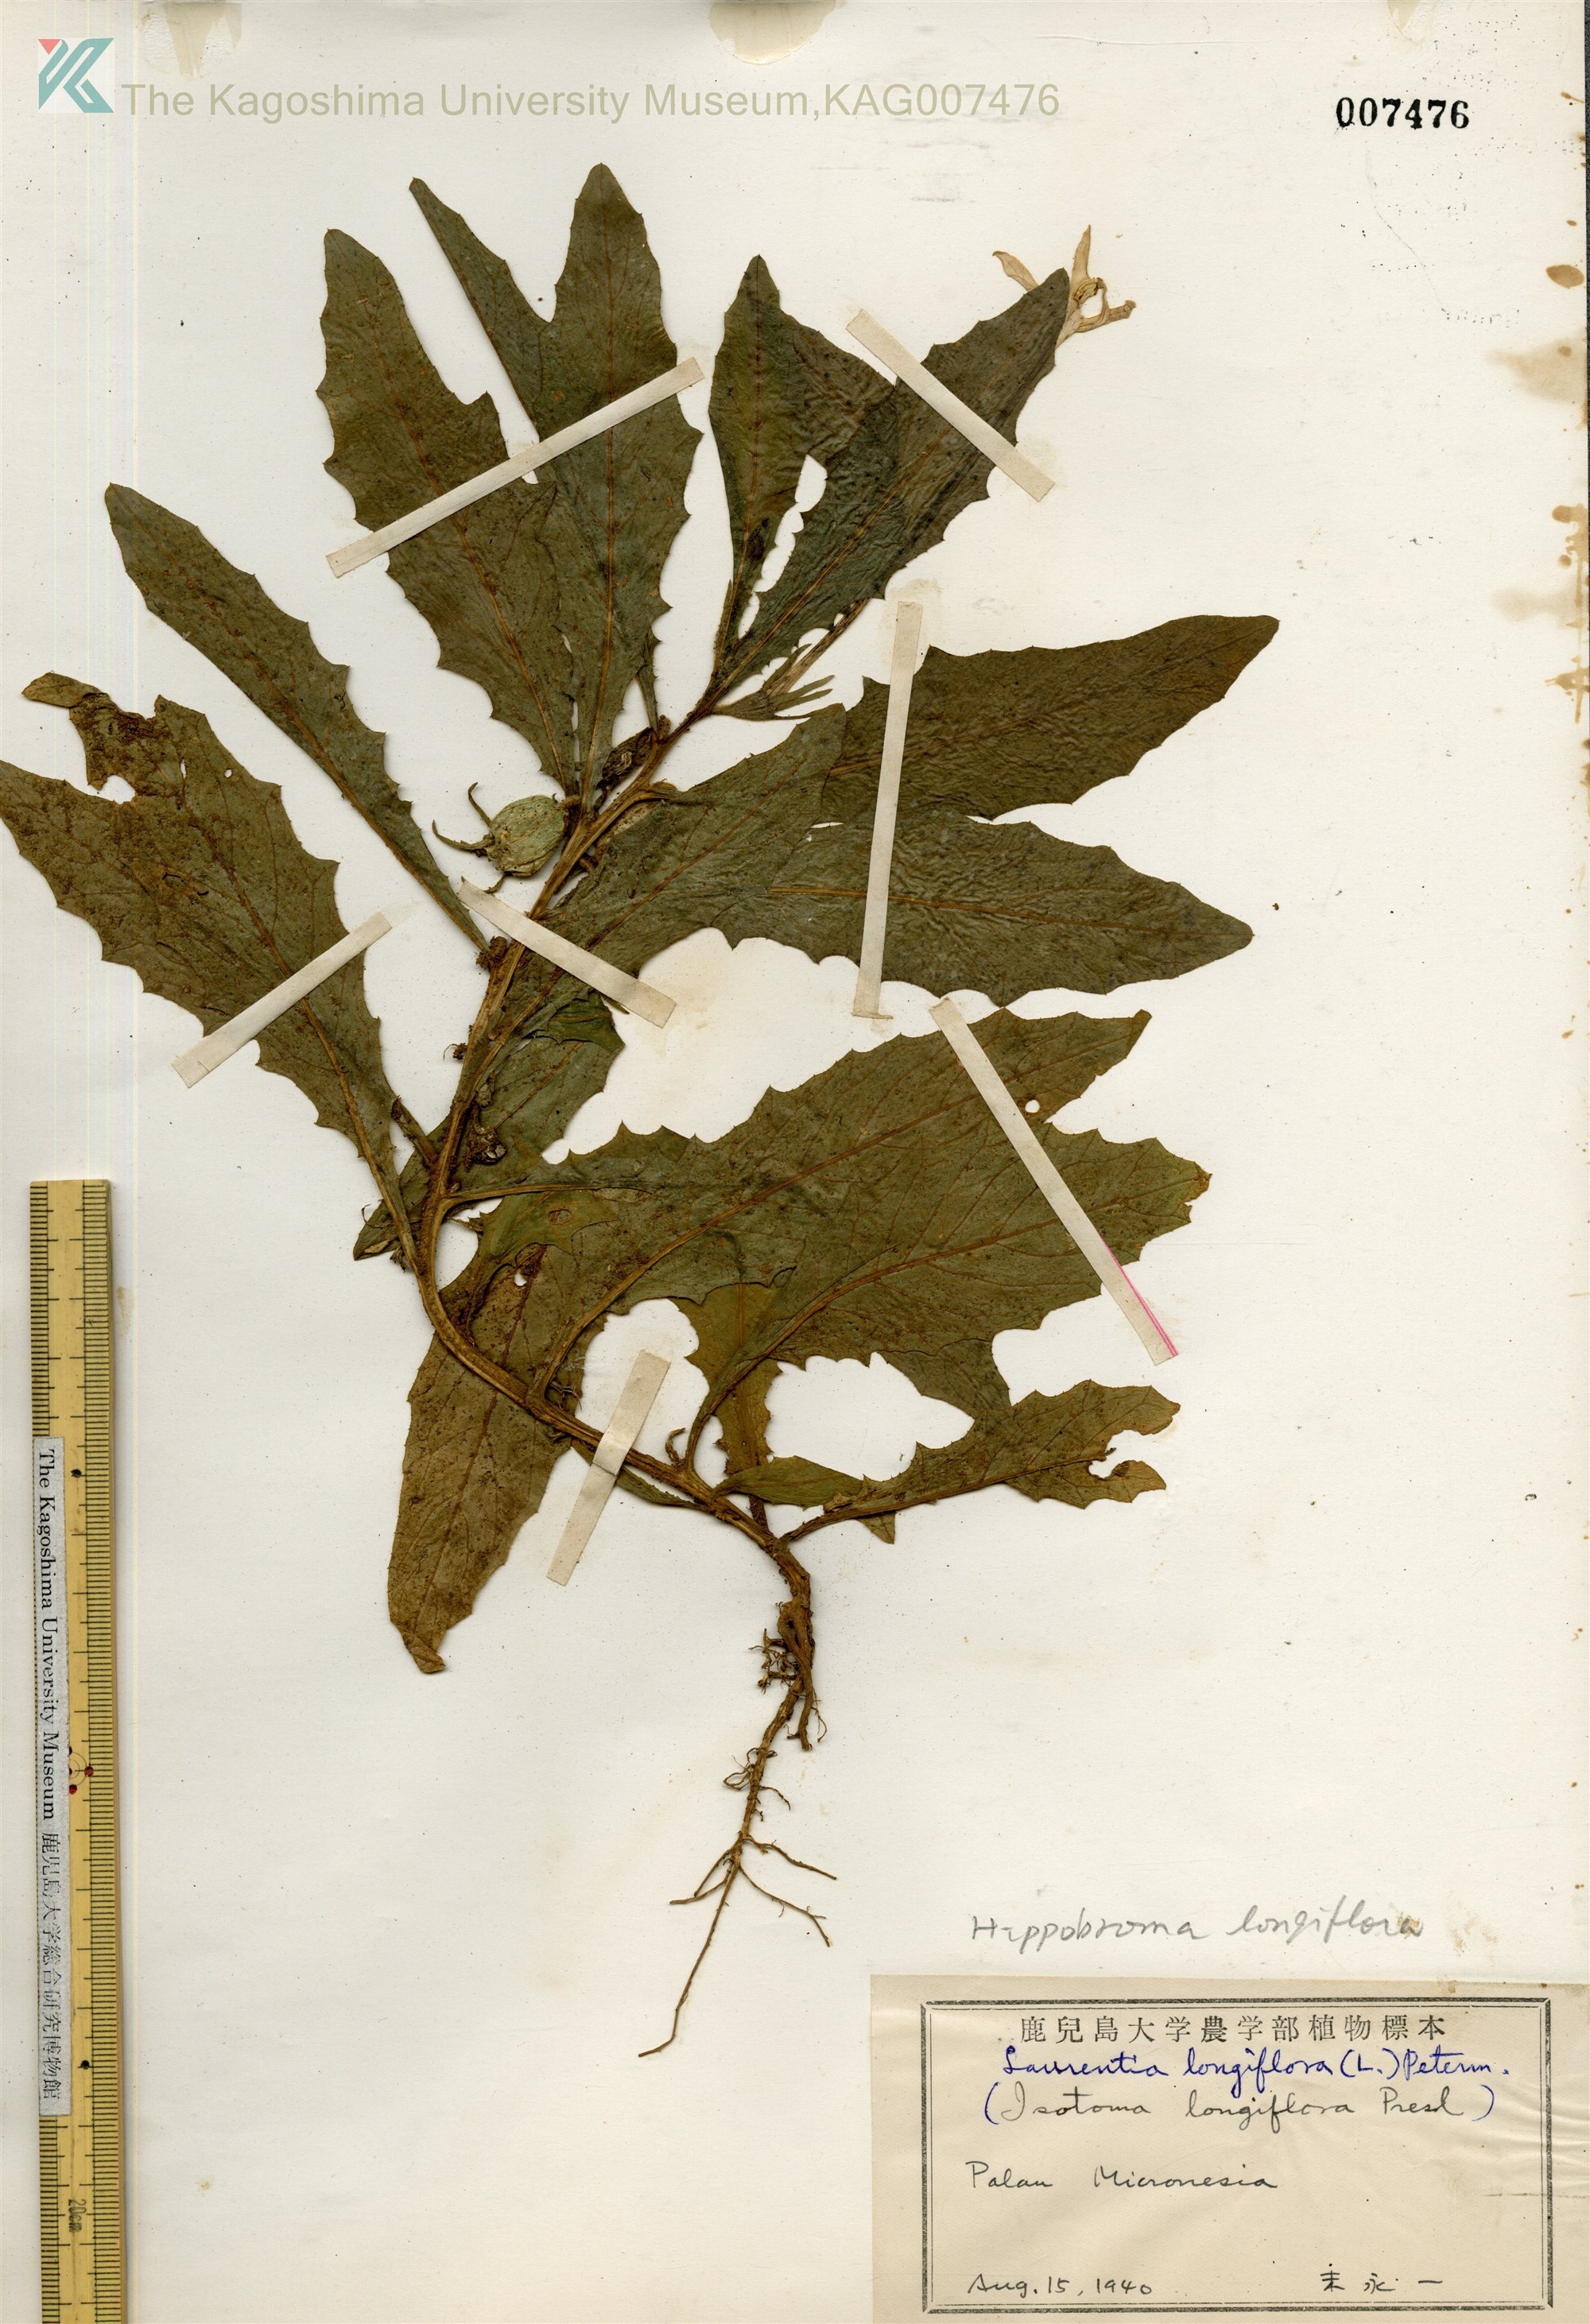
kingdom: Plantae
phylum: Tracheophyta
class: Magnoliopsida
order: Asterales
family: Campanulaceae
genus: Hippobroma
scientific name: Hippobroma longiflora
